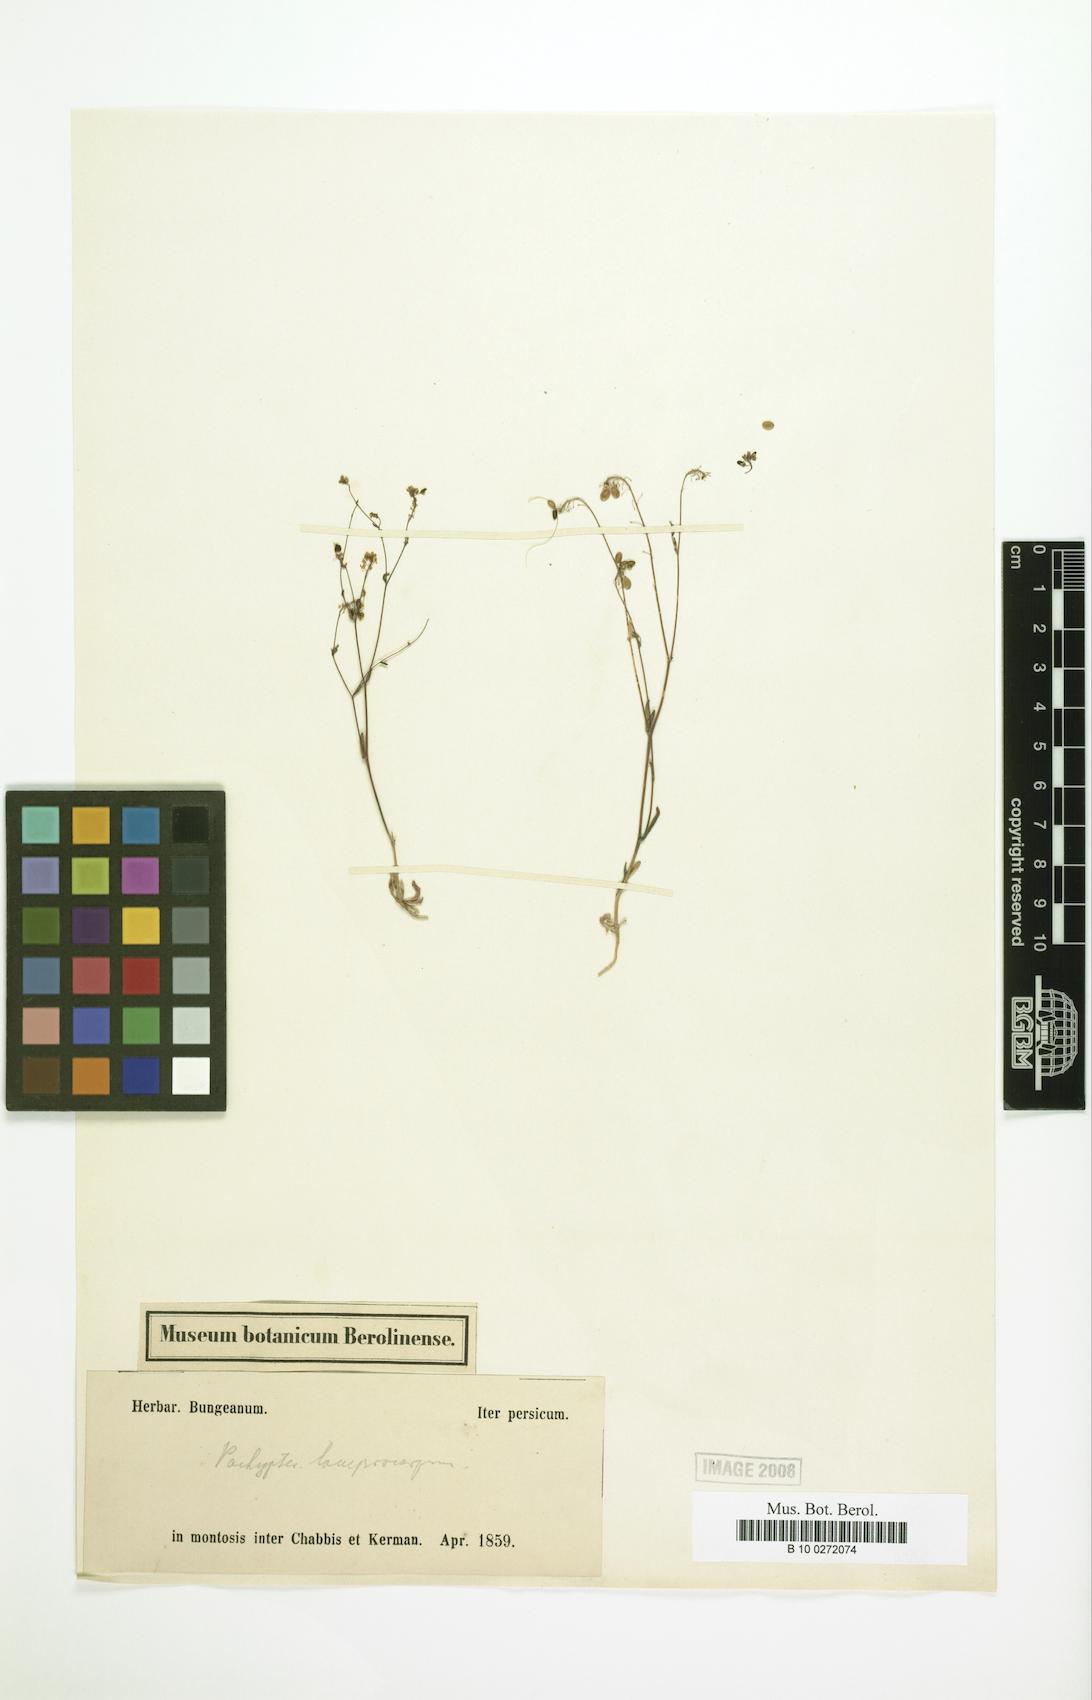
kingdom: Plantae
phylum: Tracheophyta
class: Magnoliopsida
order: Brassicales
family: Brassicaceae
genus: Isatis
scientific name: Isatis multicaulis
